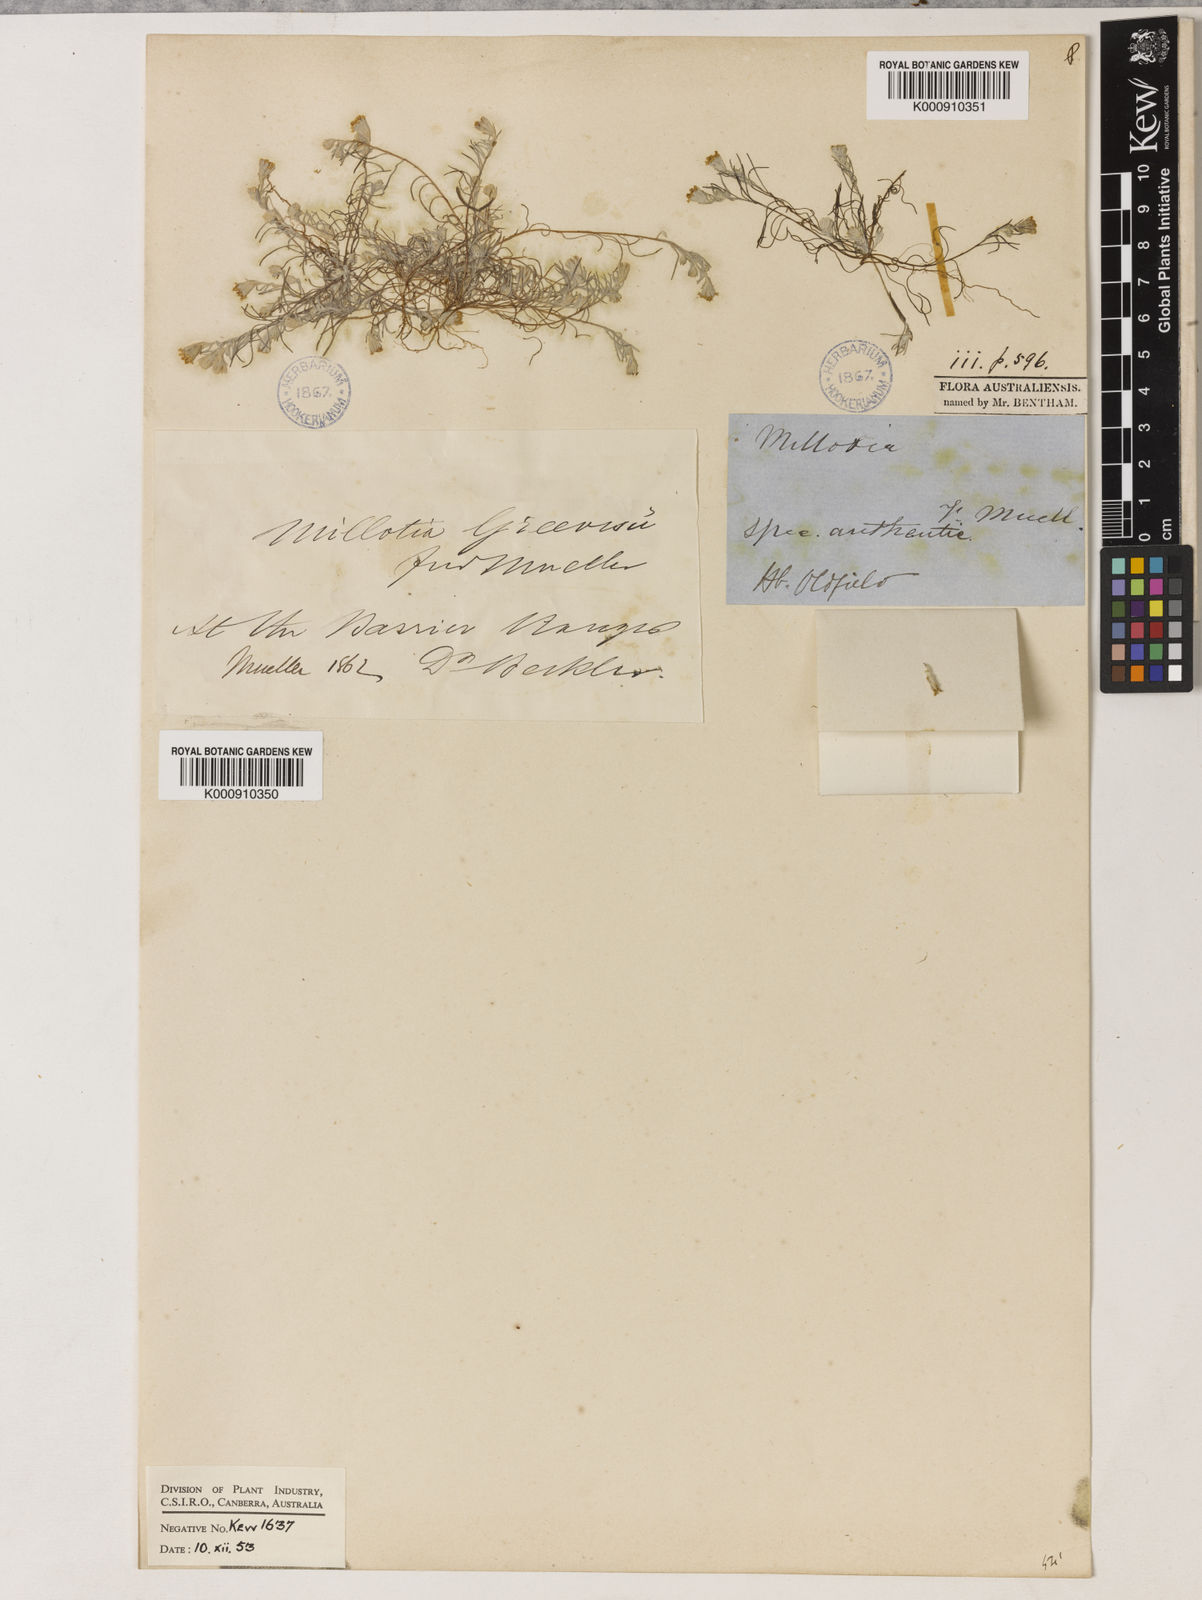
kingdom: Plantae
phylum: Tracheophyta
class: Magnoliopsida
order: Asterales
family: Asteraceae
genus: Millotia
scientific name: Millotia greevesii
